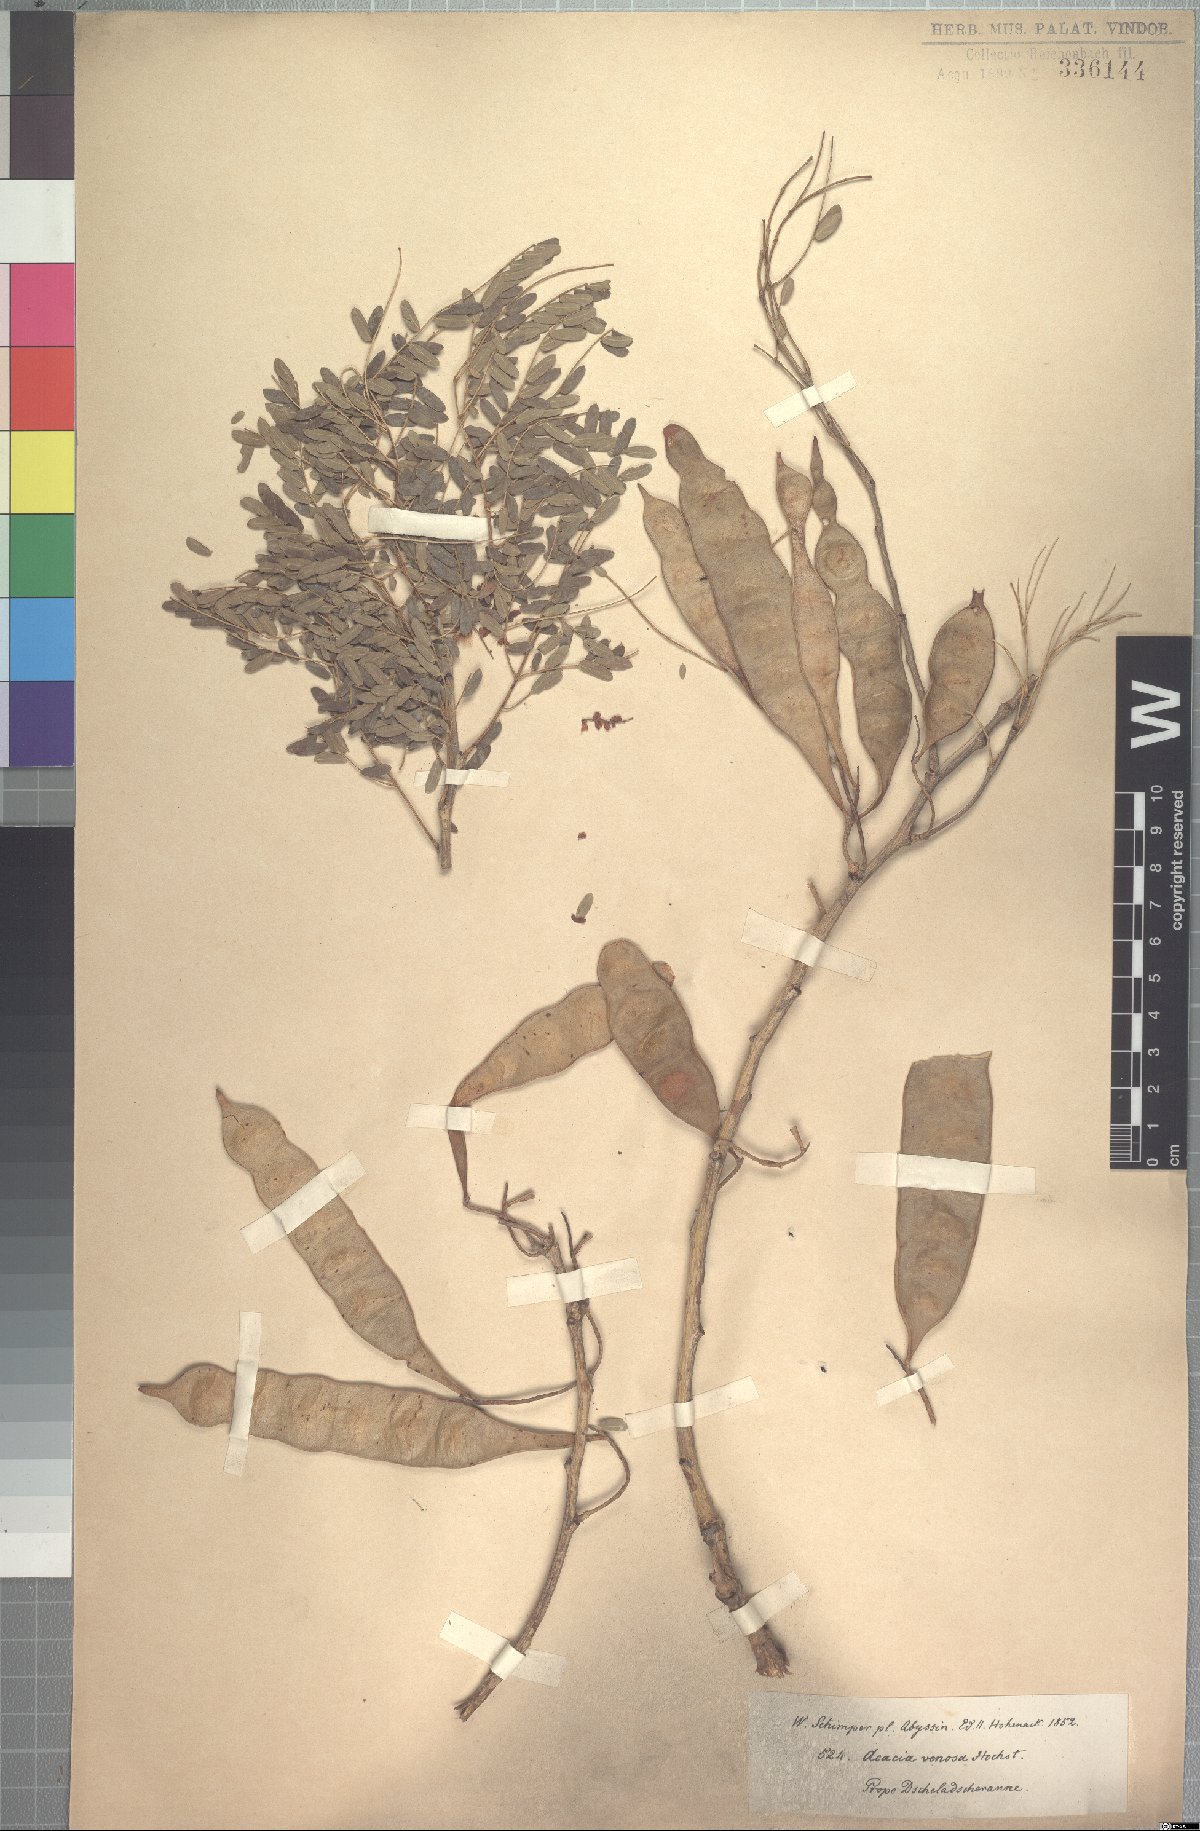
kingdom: Plantae
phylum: Tracheophyta
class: Magnoliopsida
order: Fabales
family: Fabaceae
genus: Senegalia
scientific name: Senegalia venosa
